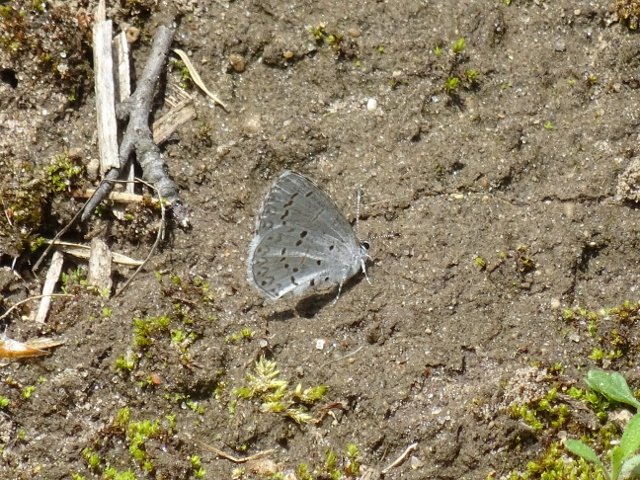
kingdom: Animalia
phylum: Arthropoda
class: Insecta
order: Lepidoptera
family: Lycaenidae
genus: Celastrina
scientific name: Celastrina
